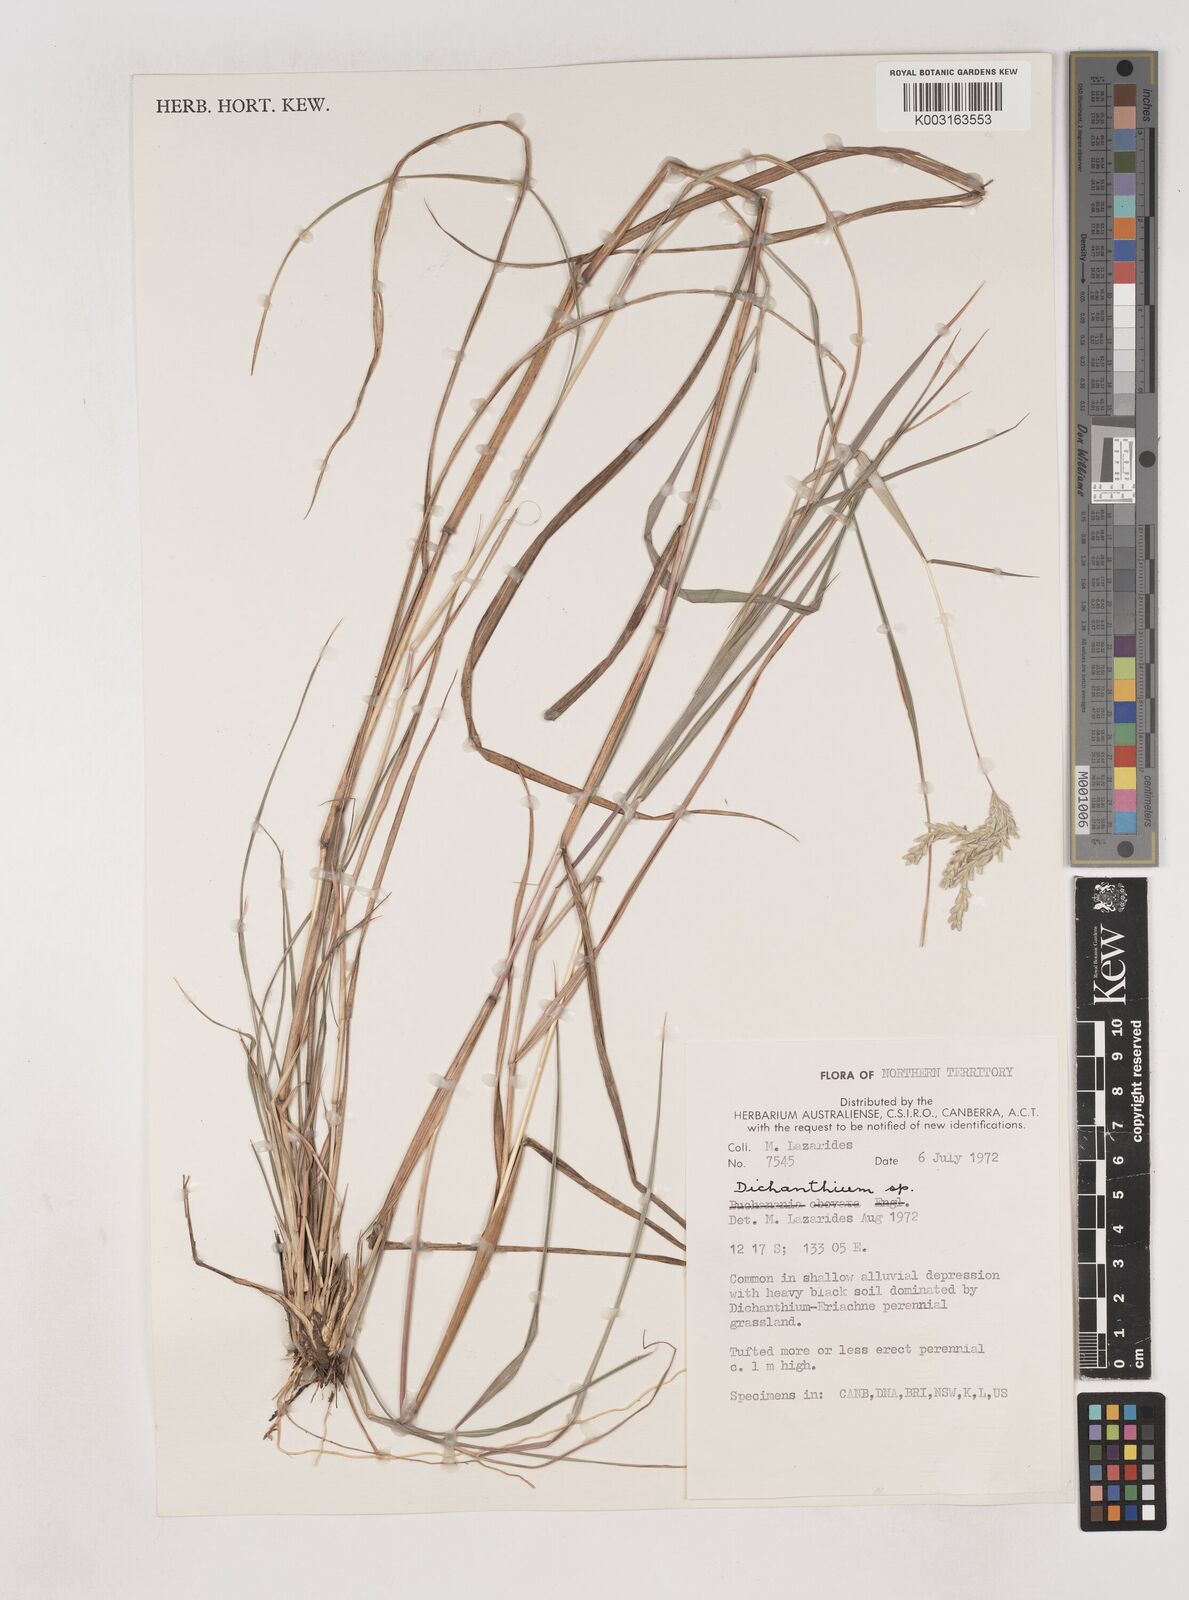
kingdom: Plantae
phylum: Tracheophyta
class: Liliopsida
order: Poales
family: Poaceae
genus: Dichanthium
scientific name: Dichanthium
